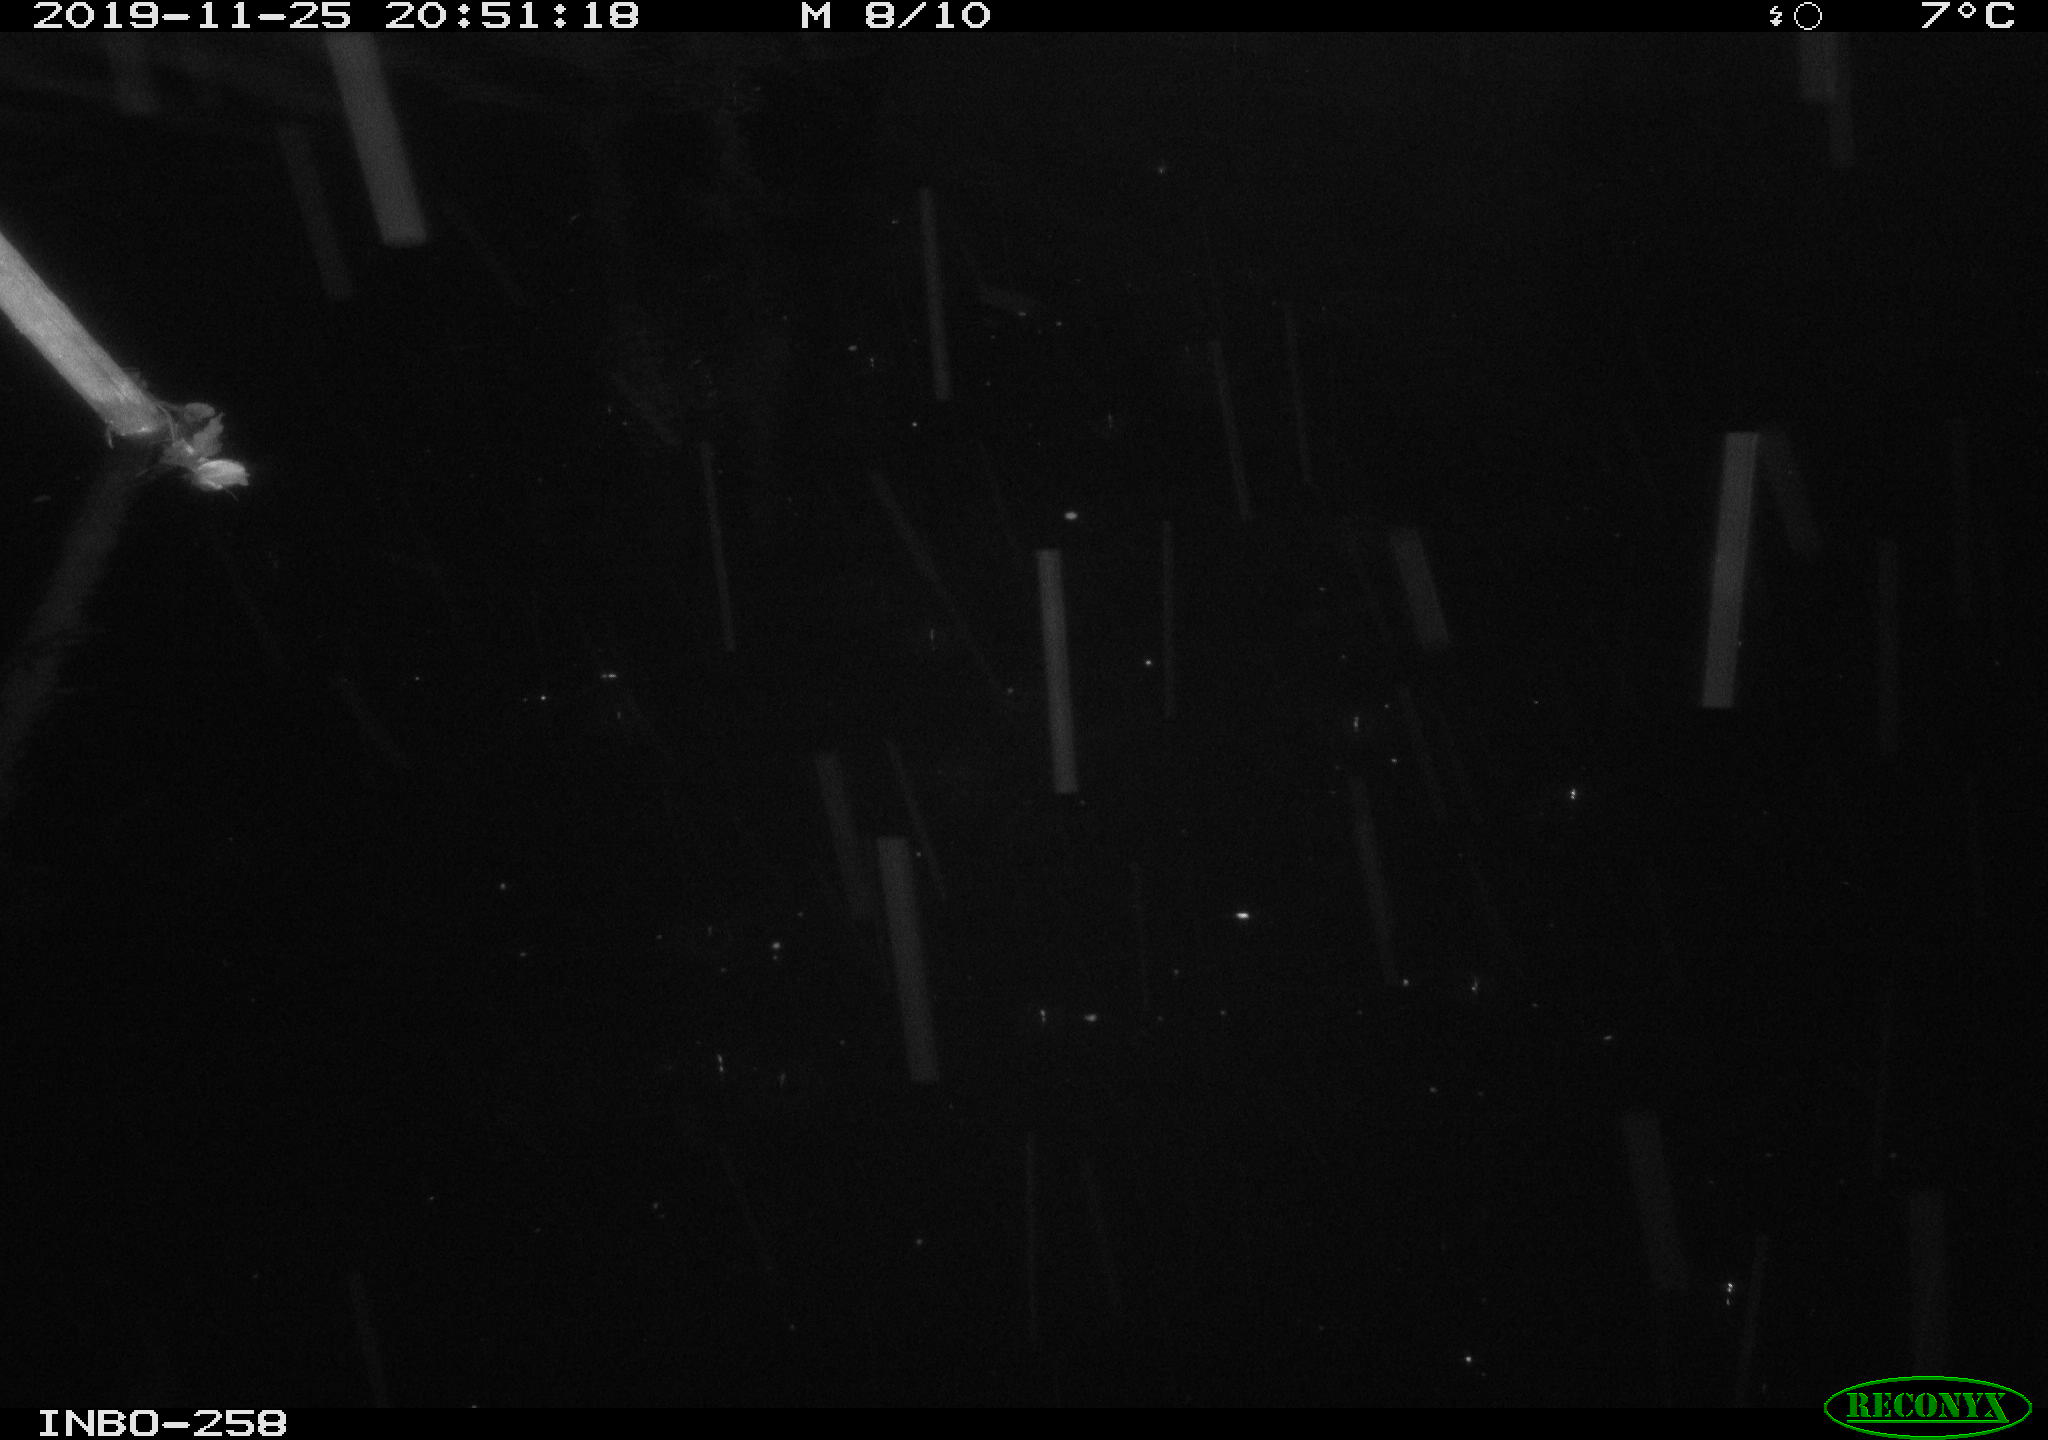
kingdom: Animalia
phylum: Chordata
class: Aves
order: Anseriformes
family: Anatidae
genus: Anas
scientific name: Anas platyrhynchos
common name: Mallard
